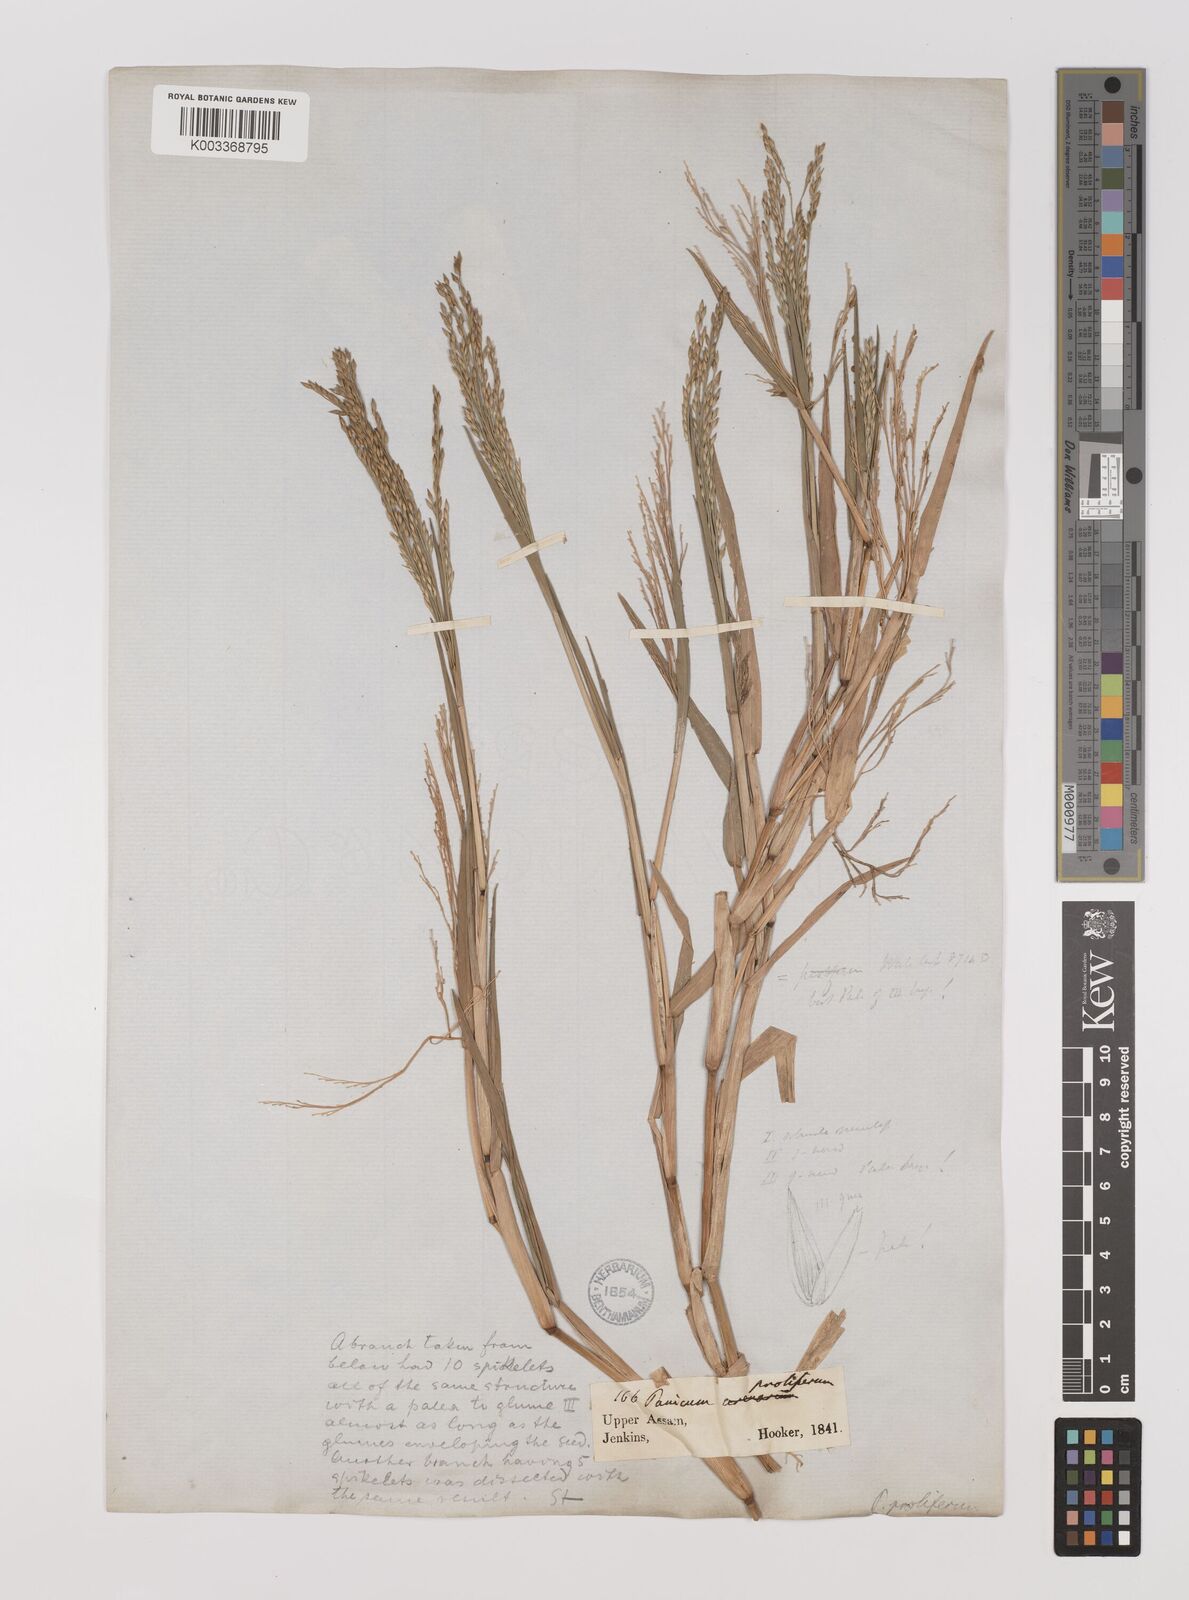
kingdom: Plantae
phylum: Tracheophyta
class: Liliopsida
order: Poales
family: Poaceae
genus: Louisiella
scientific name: Louisiella paludosa
